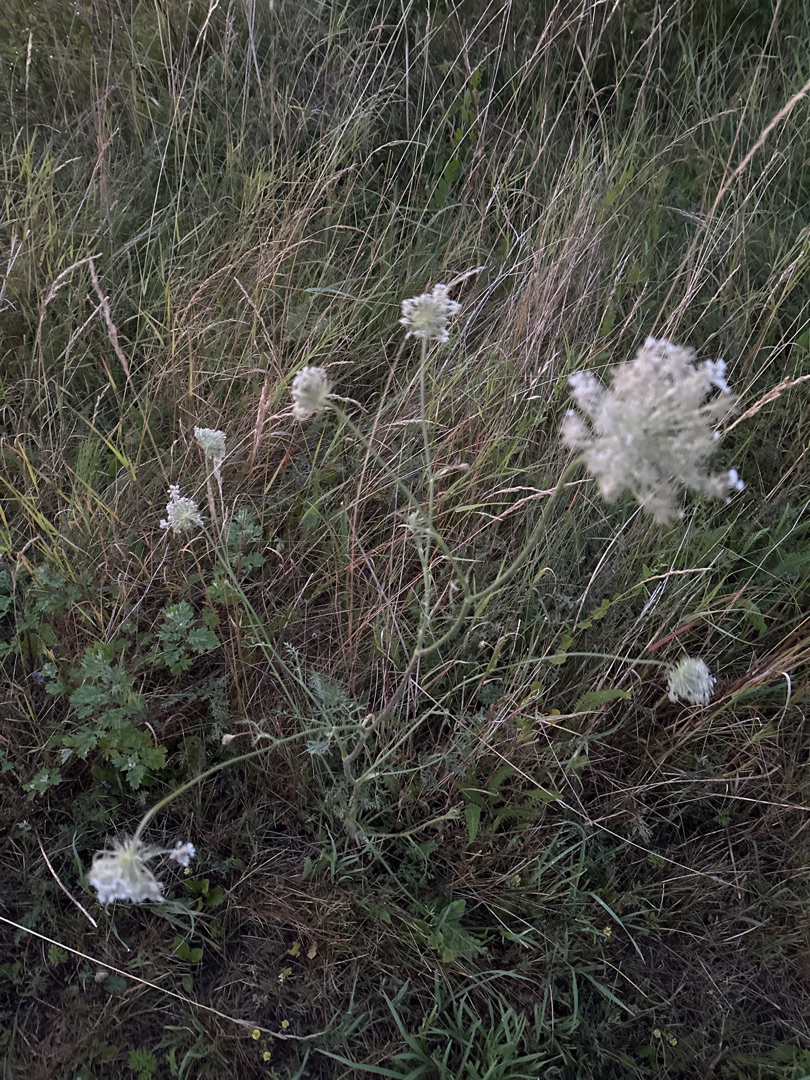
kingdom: Plantae
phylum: Tracheophyta
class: Magnoliopsida
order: Apiales
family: Apiaceae
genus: Daucus
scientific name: Daucus carota
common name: Gulerod
